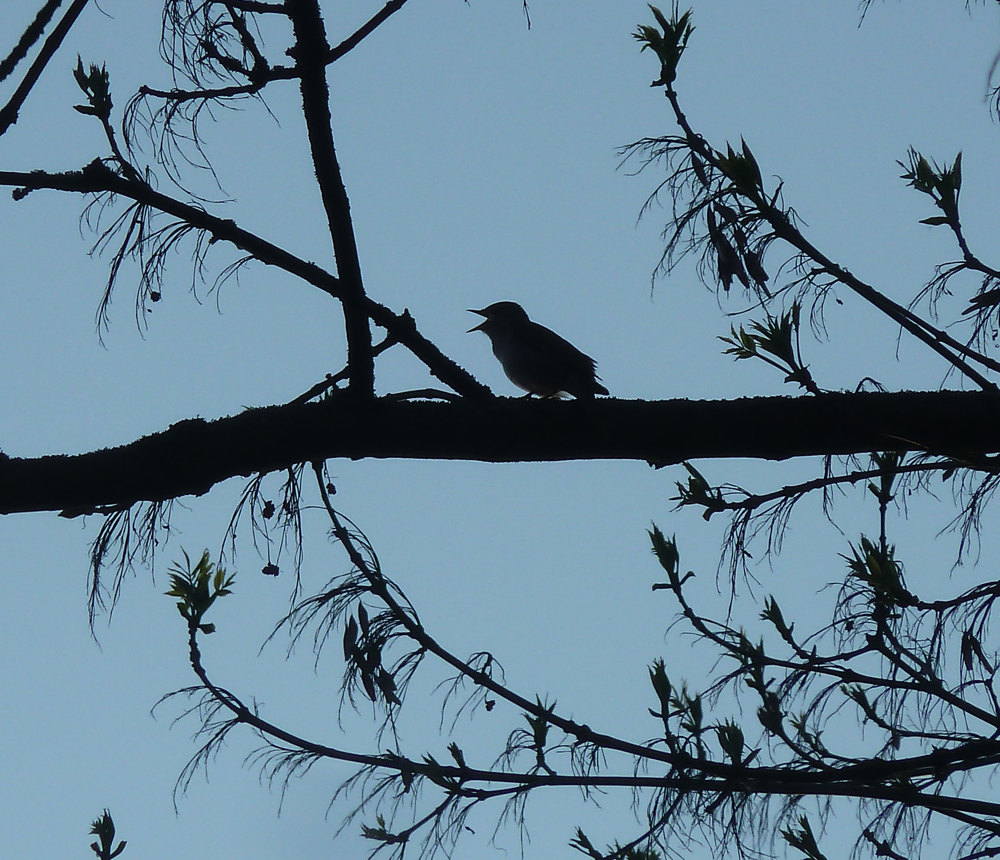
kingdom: Animalia
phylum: Chordata
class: Aves
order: Passeriformes
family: Muscicapidae
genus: Luscinia
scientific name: Luscinia megarhynchos
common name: Common nightingale
